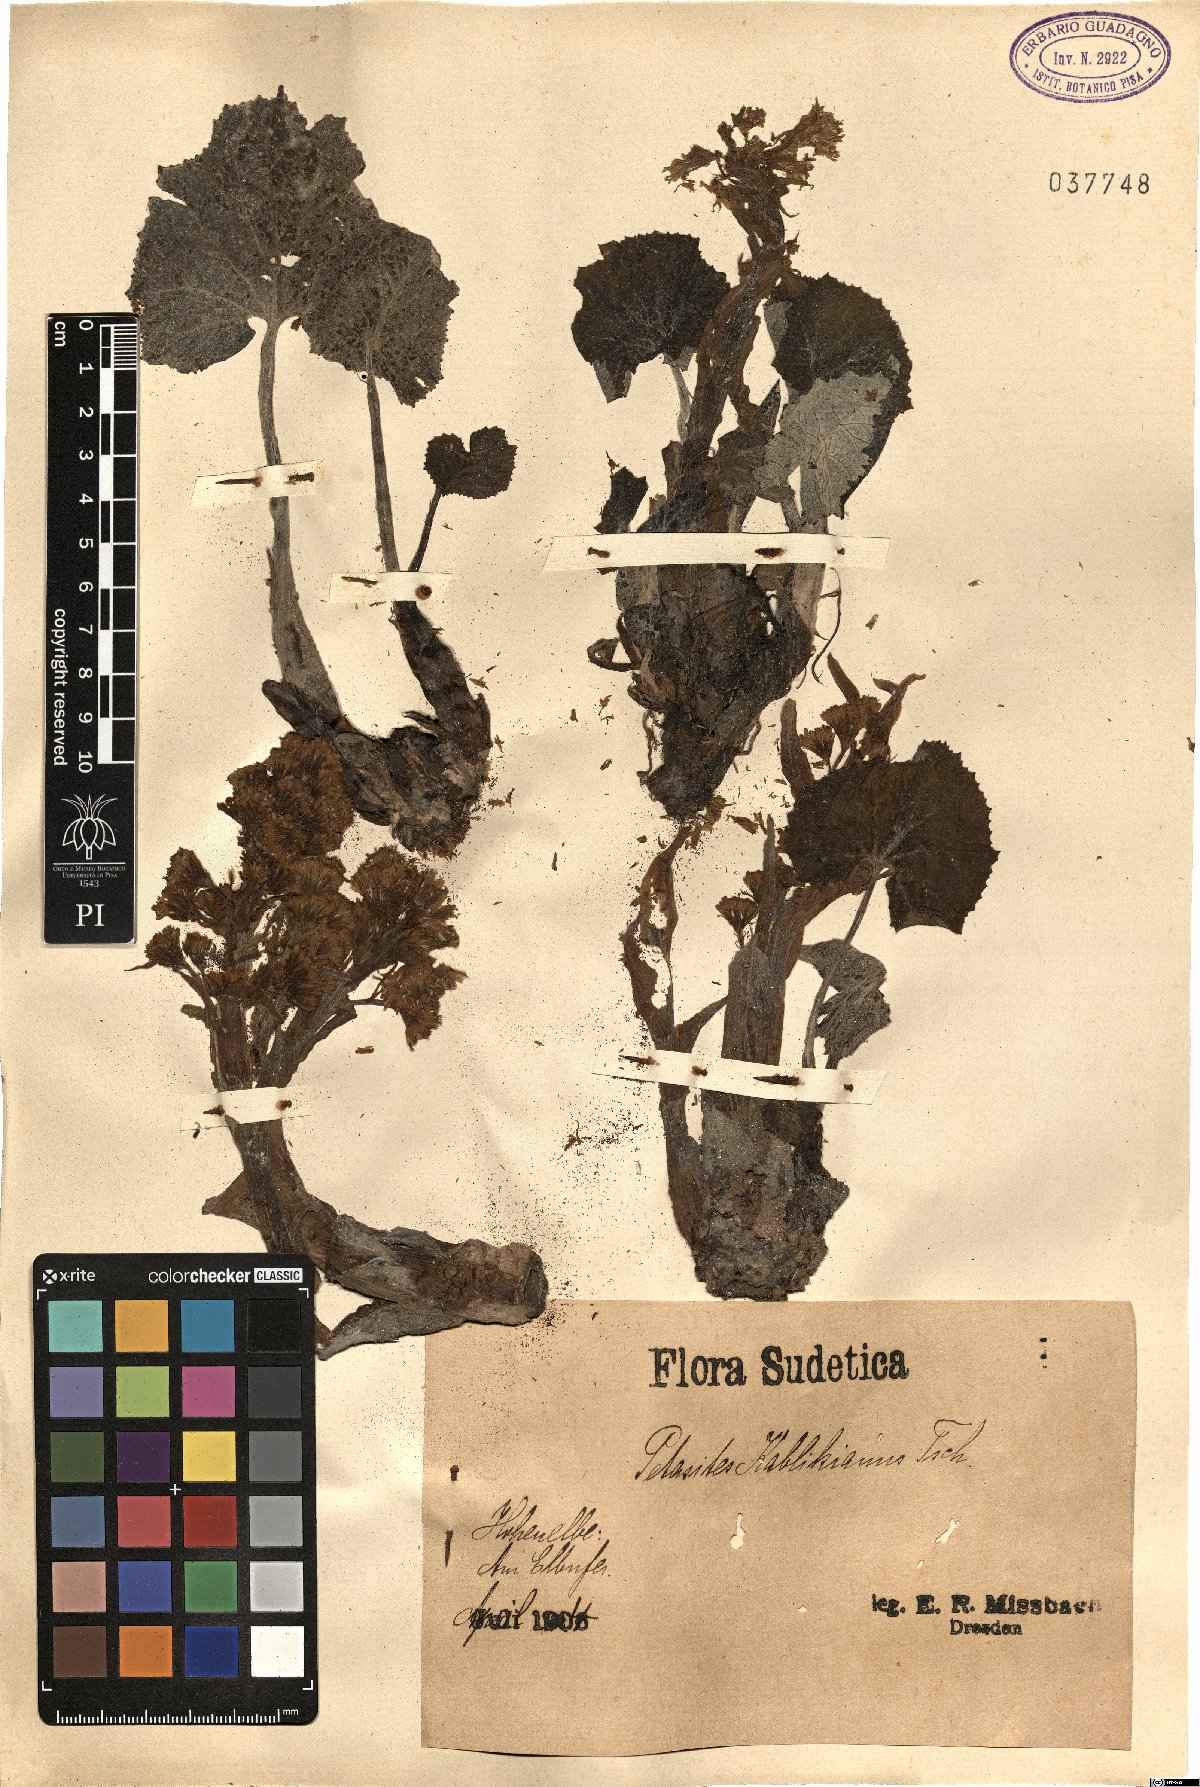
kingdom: Plantae
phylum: Tracheophyta
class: Magnoliopsida
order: Asterales
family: Asteraceae
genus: Petasites
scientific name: Petasites kablikianus
